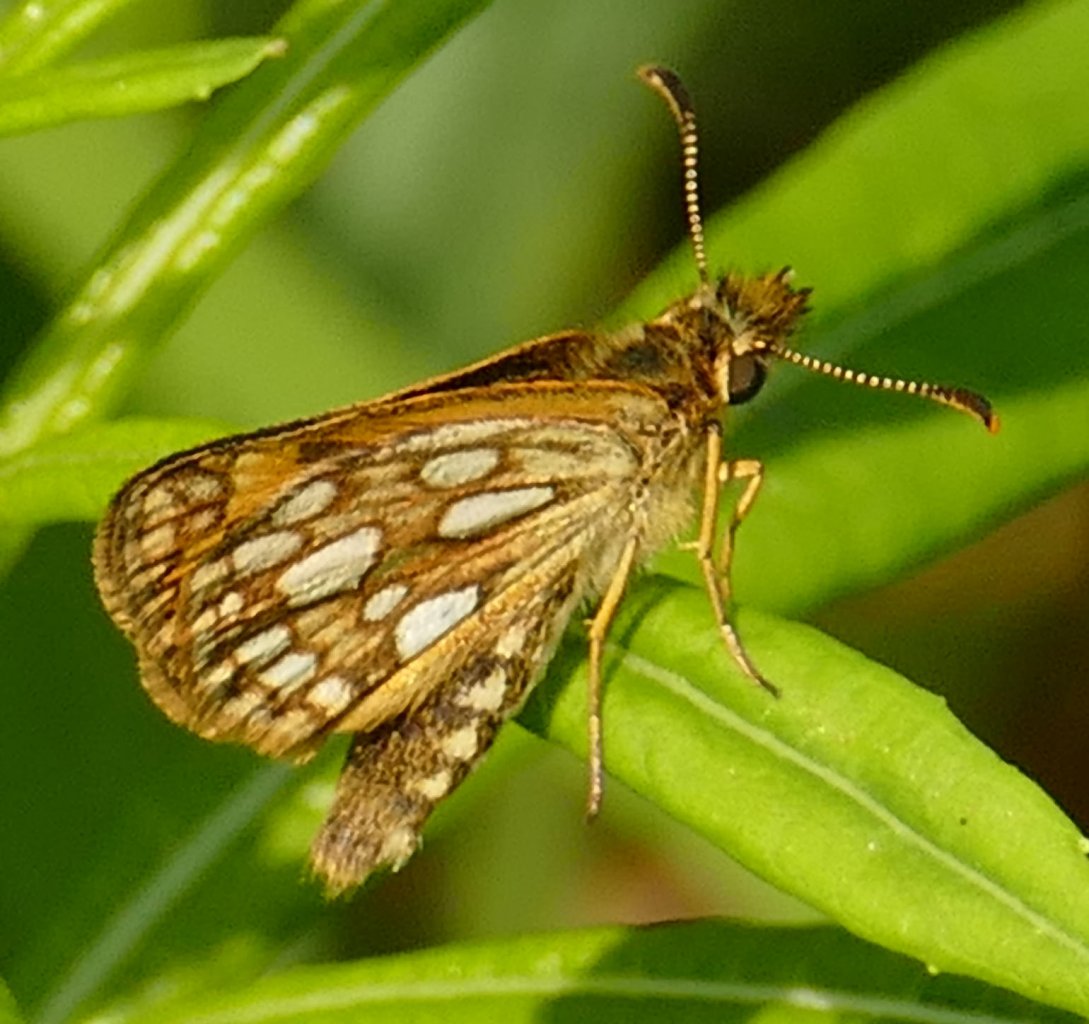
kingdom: Animalia
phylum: Arthropoda
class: Insecta
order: Lepidoptera
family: Hesperiidae
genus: Carterocephalus
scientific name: Carterocephalus palaemon
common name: Chequered Skipper
